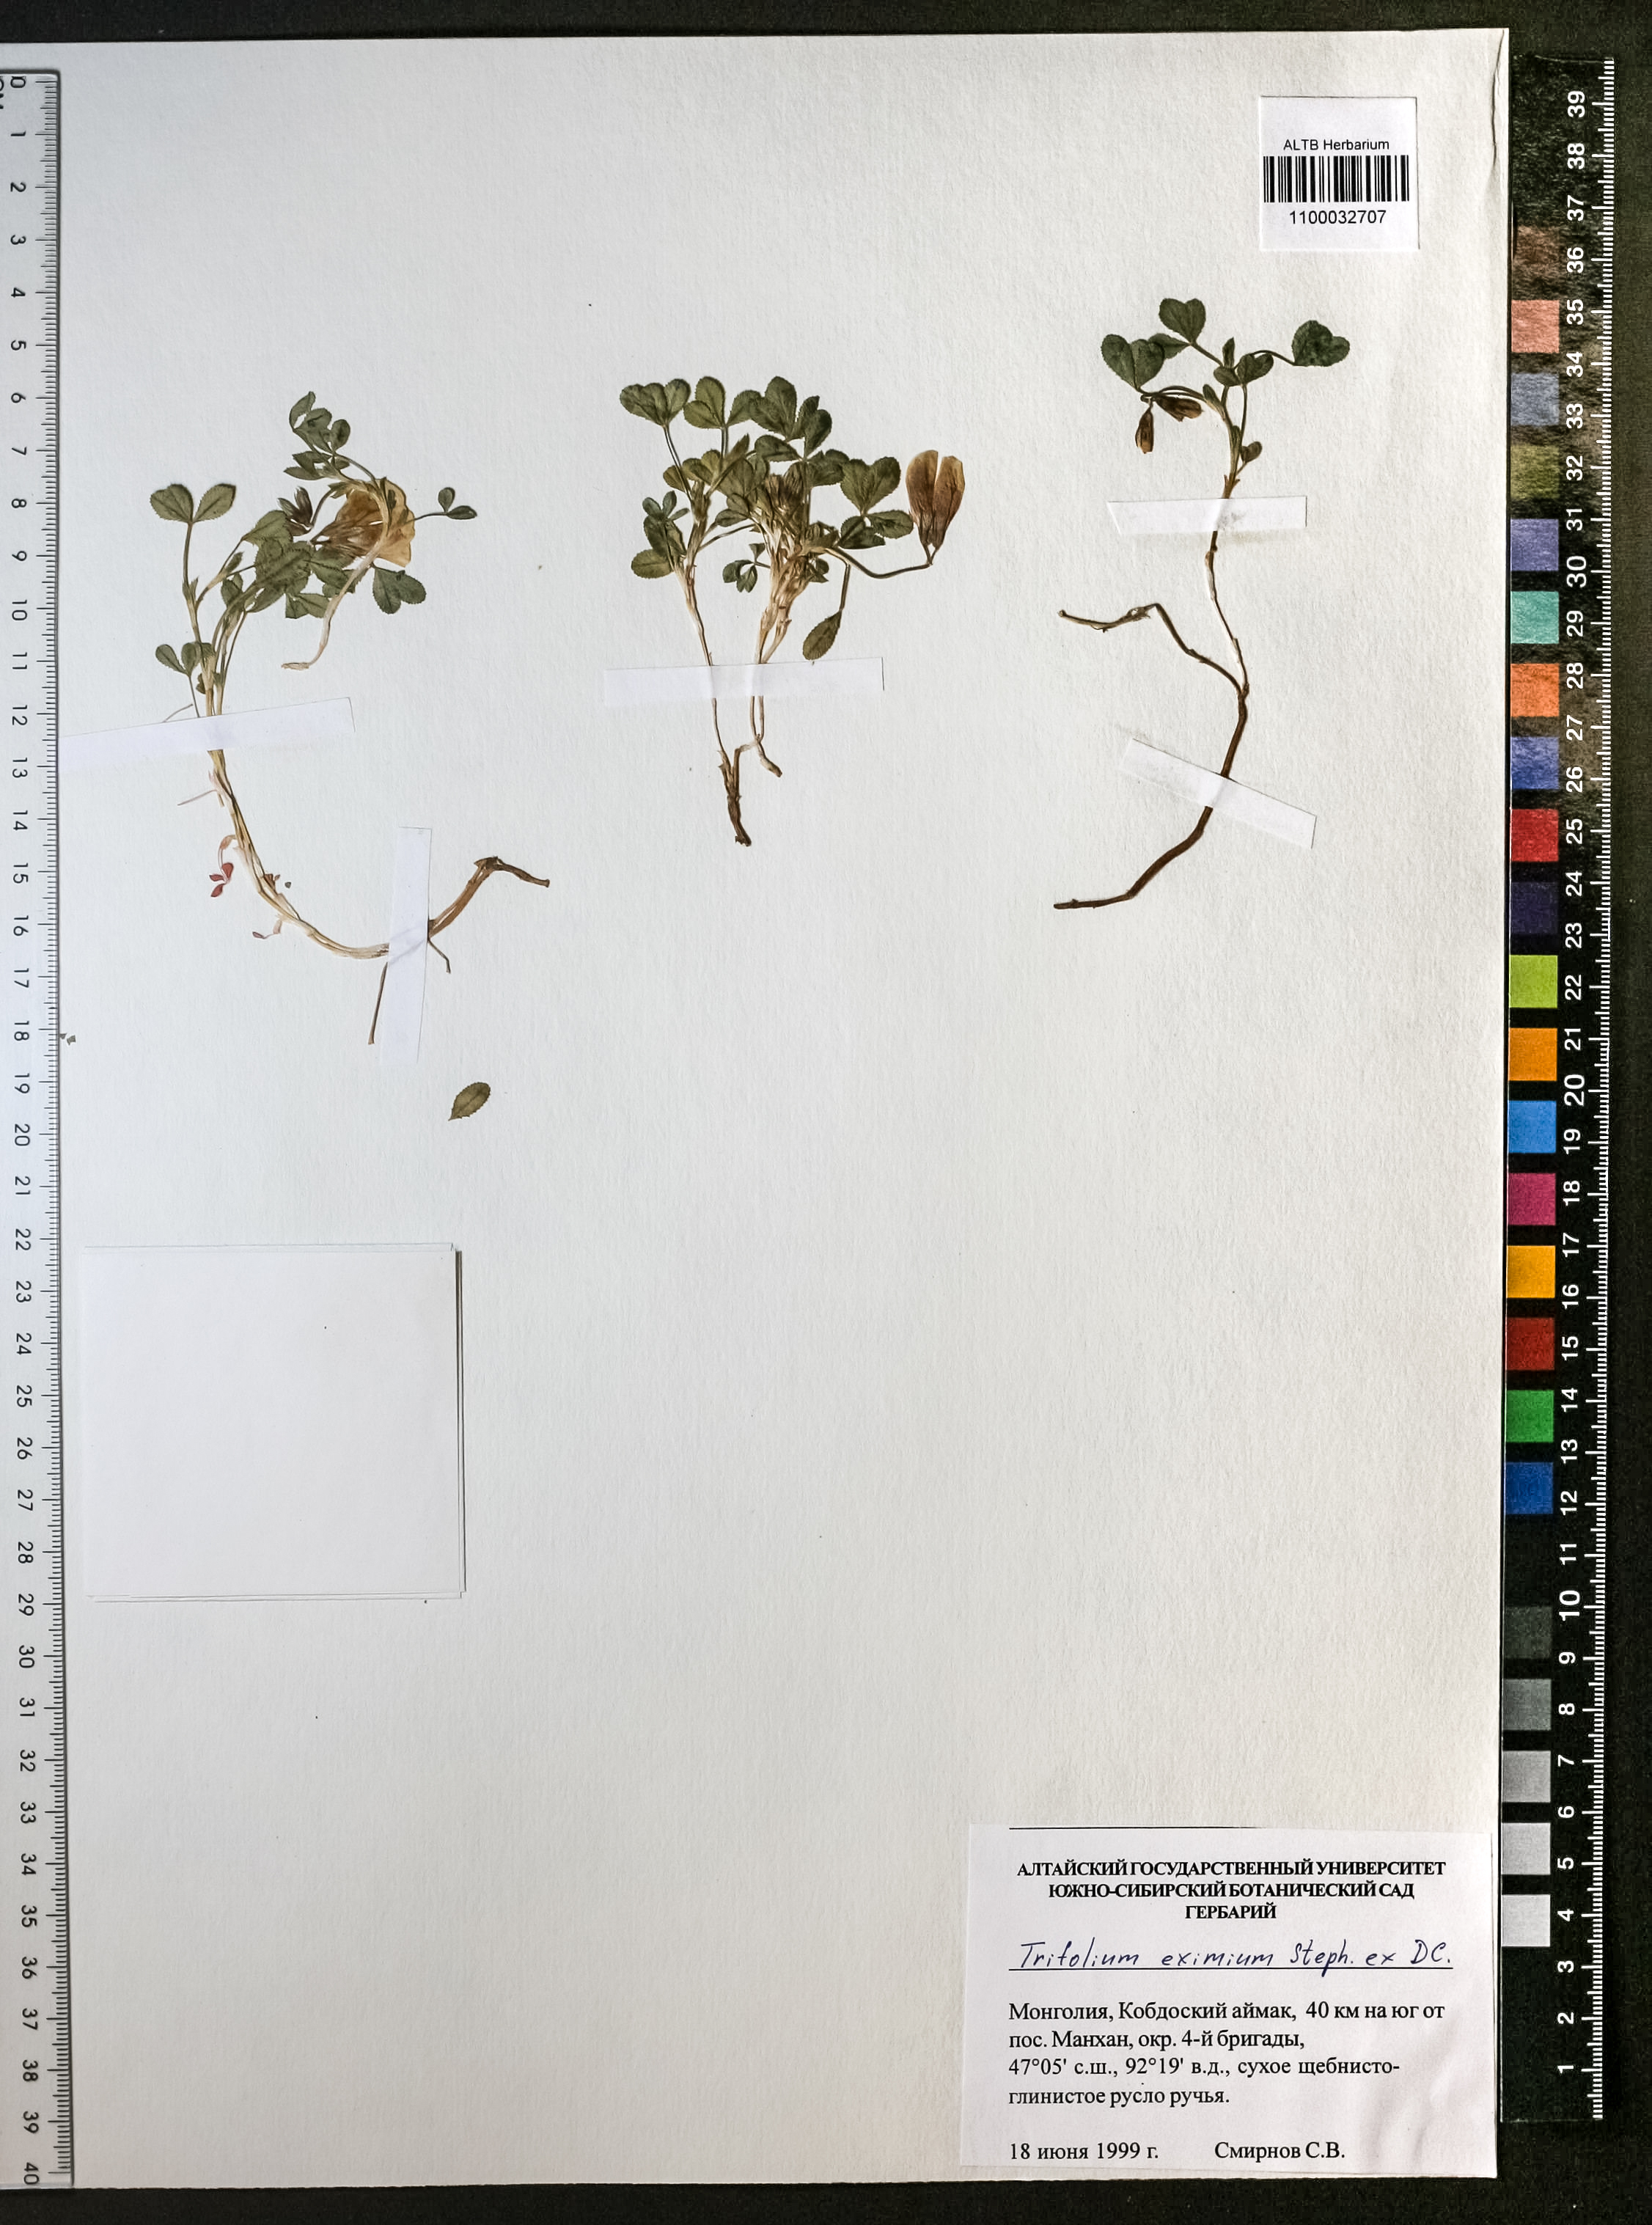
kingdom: Plantae
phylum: Tracheophyta
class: Magnoliopsida
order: Fabales
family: Fabaceae
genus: Trifolium
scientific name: Trifolium eximium
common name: Excellent clover
